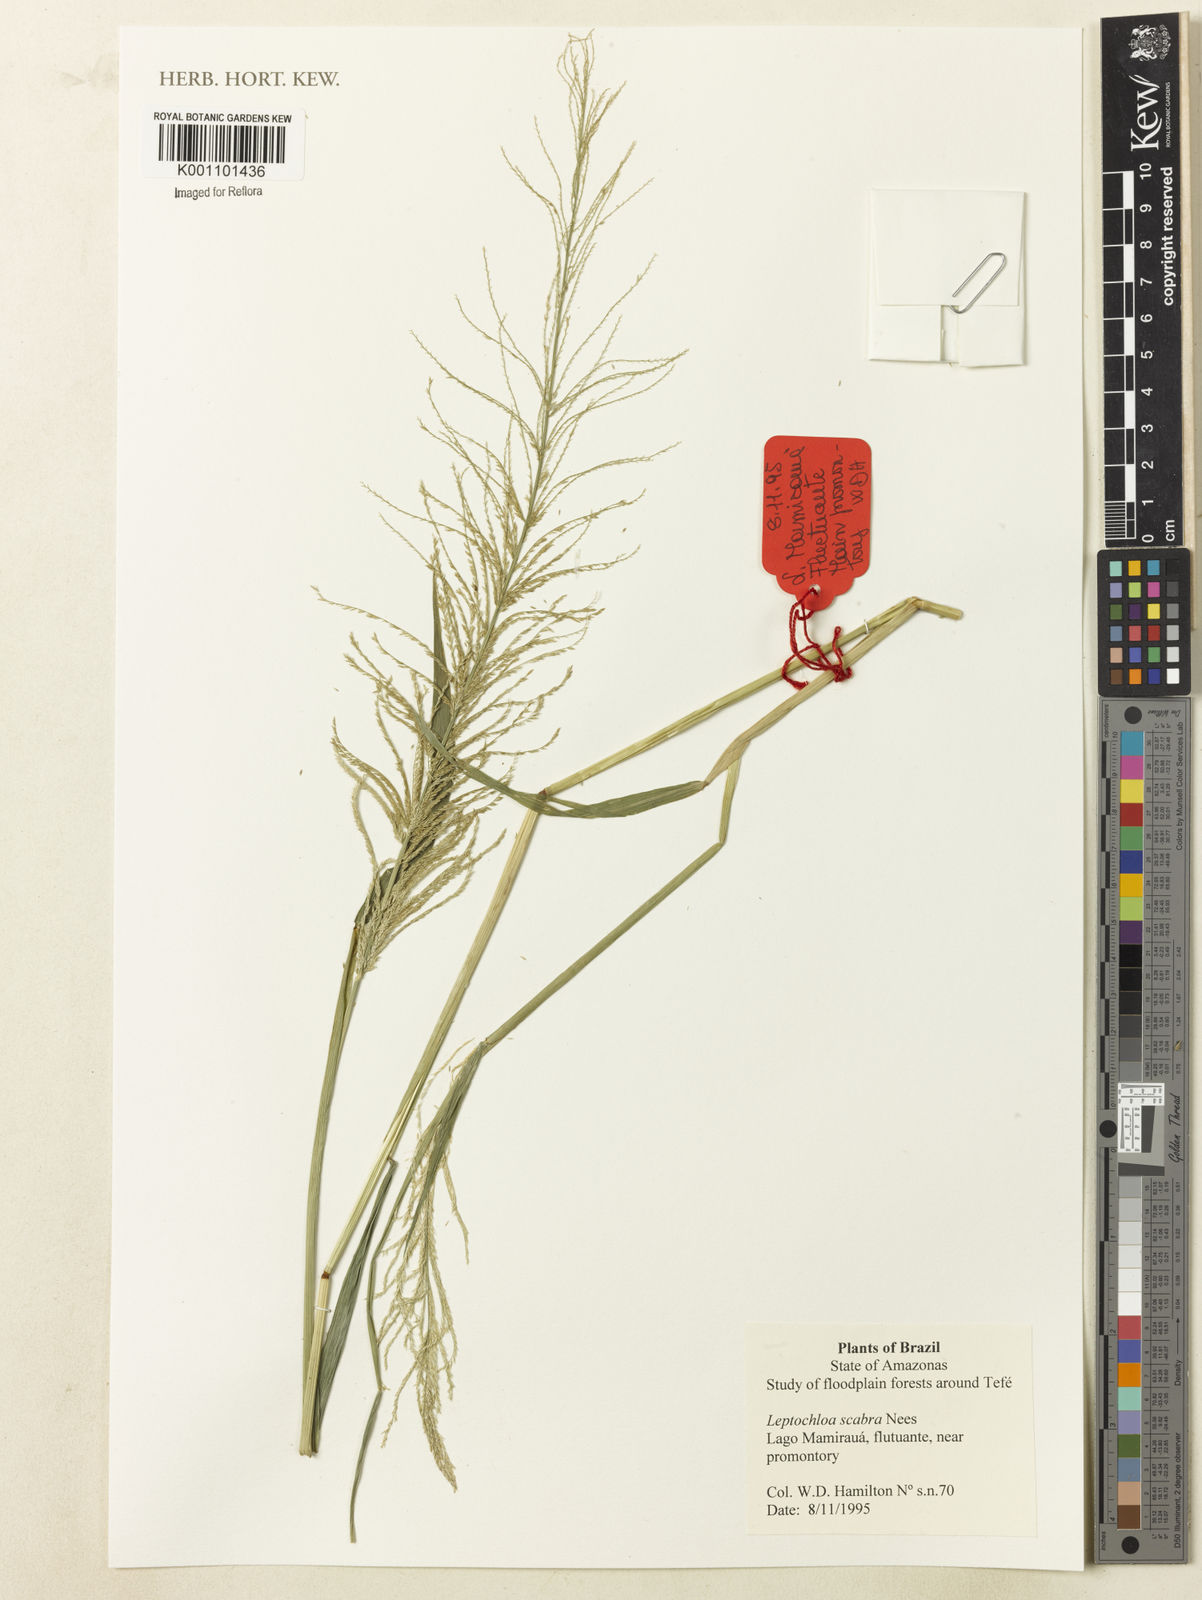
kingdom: Plantae
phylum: Tracheophyta
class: Liliopsida
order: Poales
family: Poaceae
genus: Leptochloa
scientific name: Leptochloa
